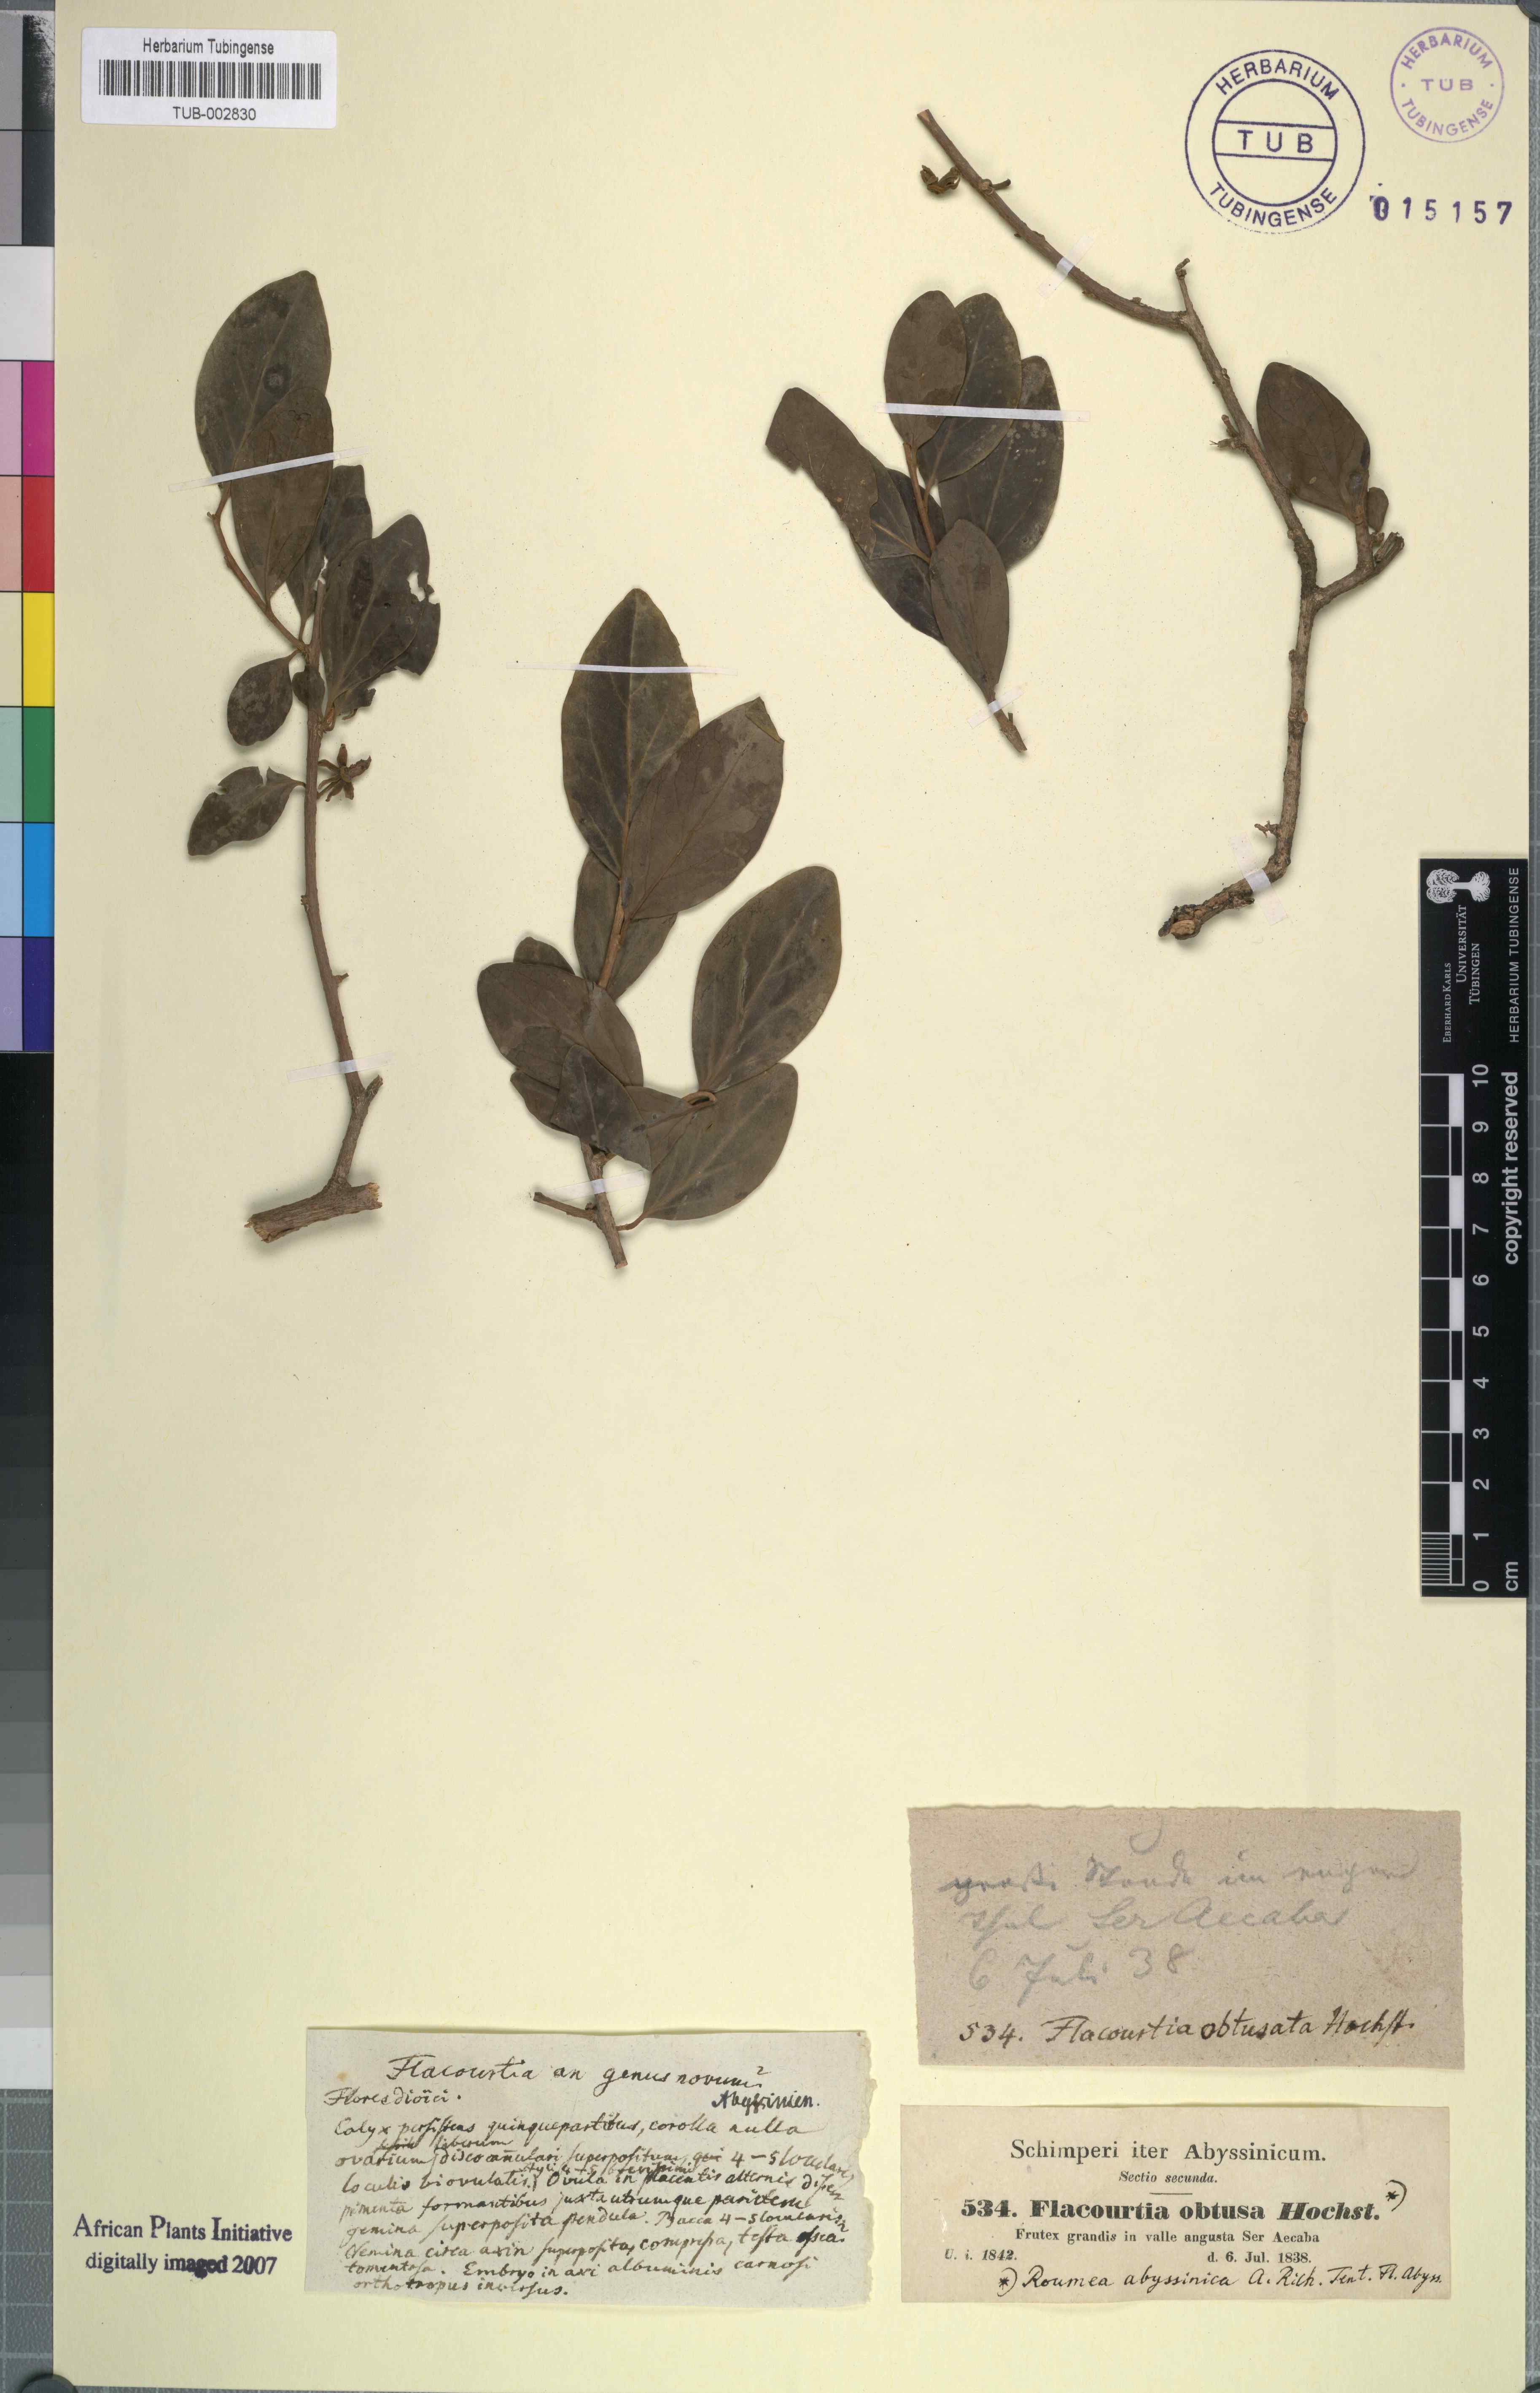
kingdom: Plantae
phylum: Tracheophyta
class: Magnoliopsida
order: Malpighiales
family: Salicaceae
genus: Dovyalis
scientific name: Dovyalis abyssinica
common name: Abyssinian-gooseberry
